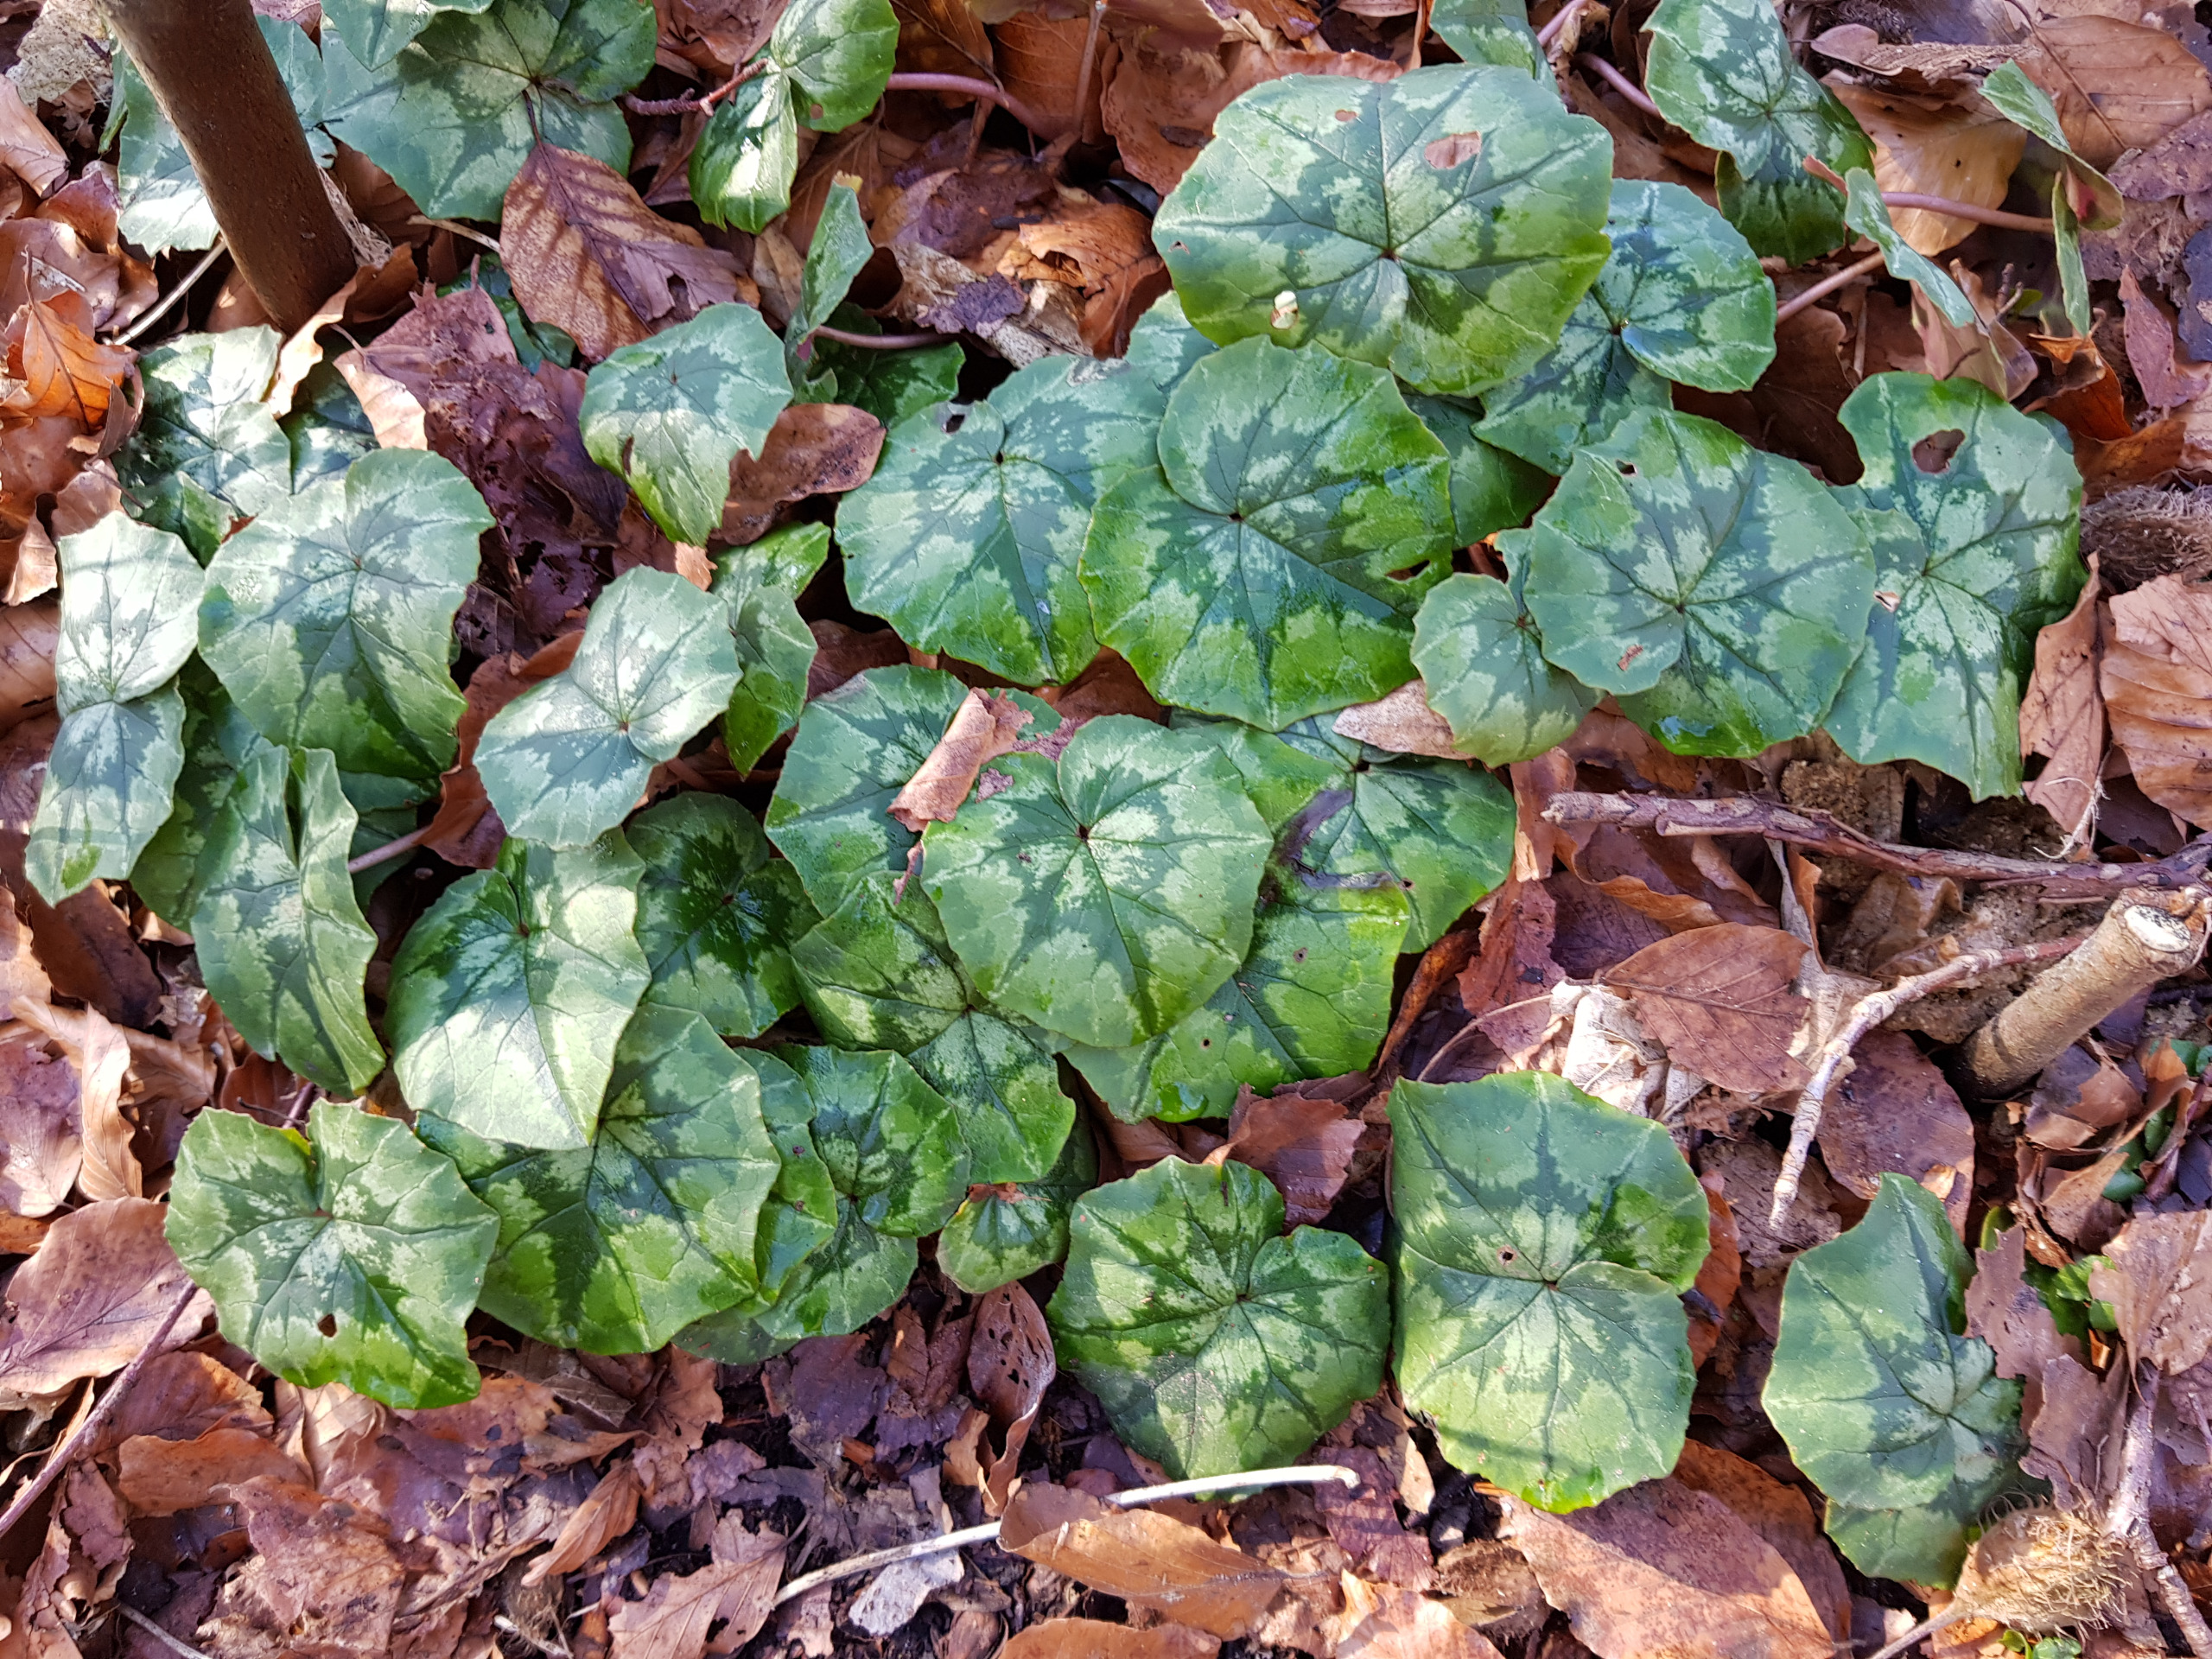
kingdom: Plantae
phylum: Tracheophyta
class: Magnoliopsida
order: Ericales
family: Primulaceae
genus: Cyclamen
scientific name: Cyclamen hederifolium
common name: Vedbendbladet alpeviol
